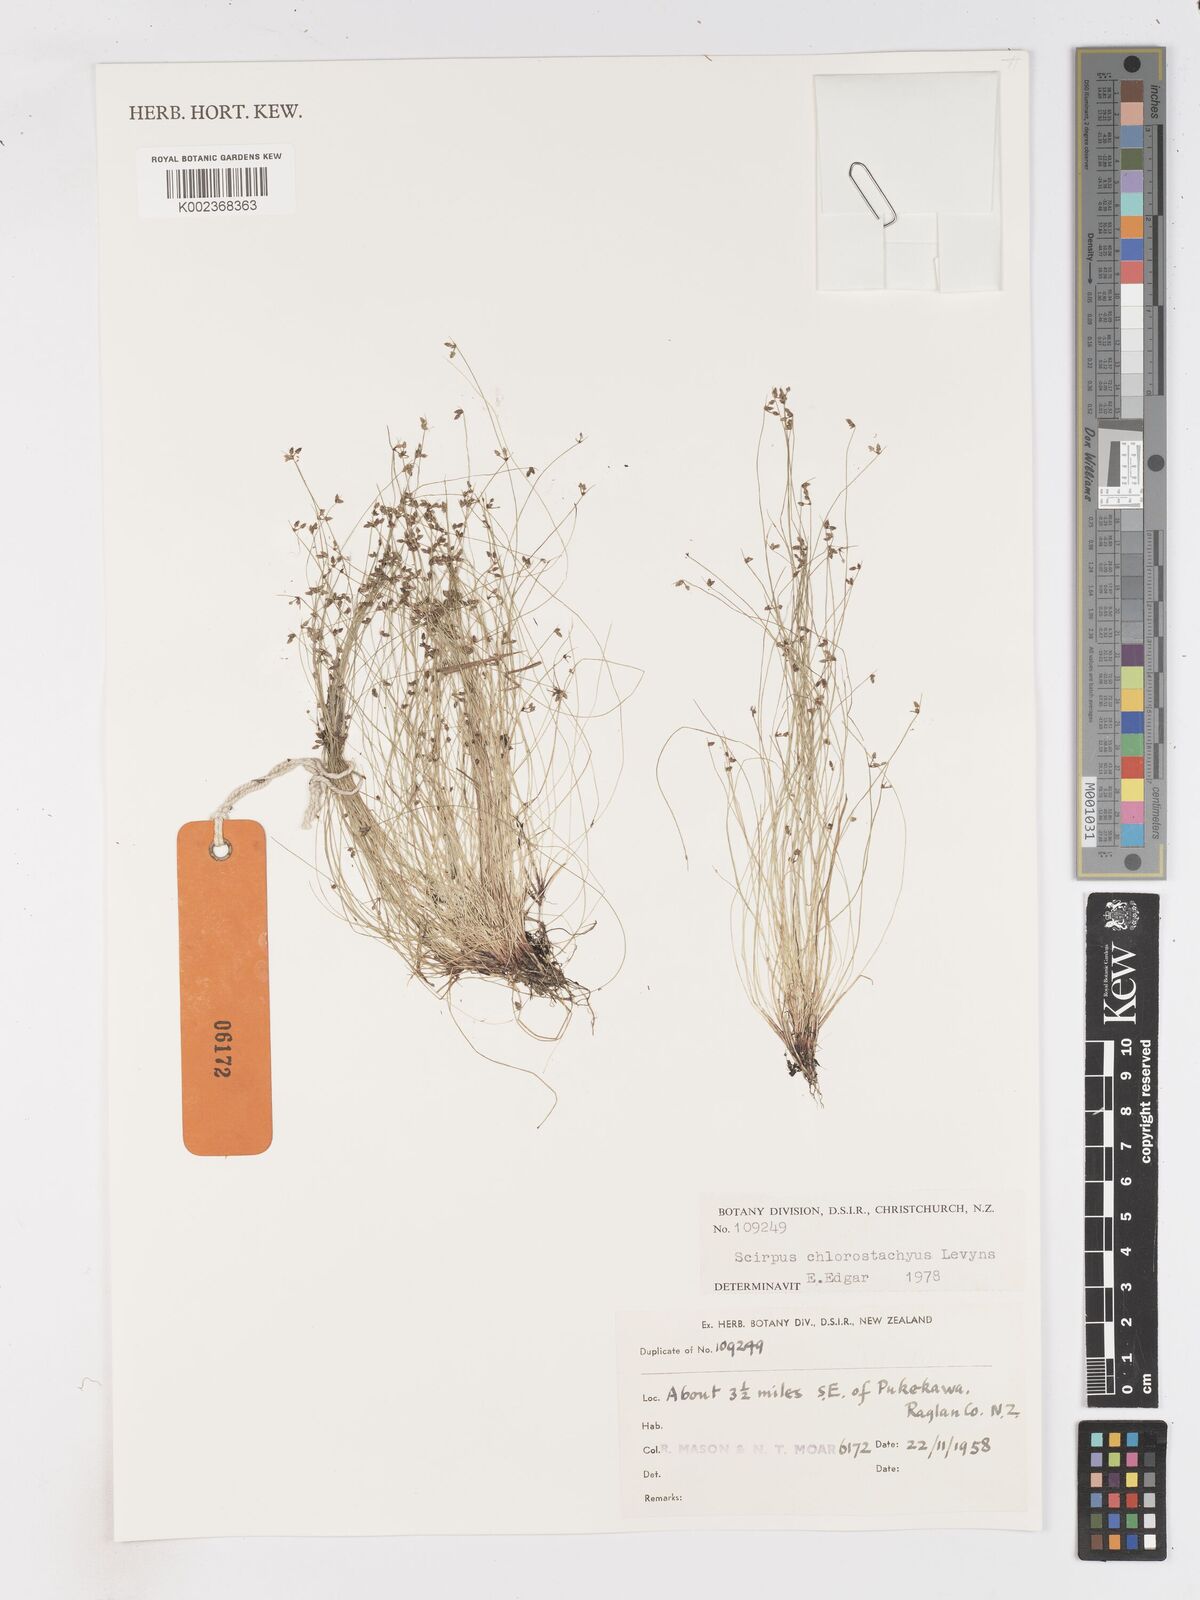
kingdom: Plantae
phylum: Tracheophyta
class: Liliopsida
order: Poales
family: Cyperaceae
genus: Isolepis
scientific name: Isolepis sepulcralis
